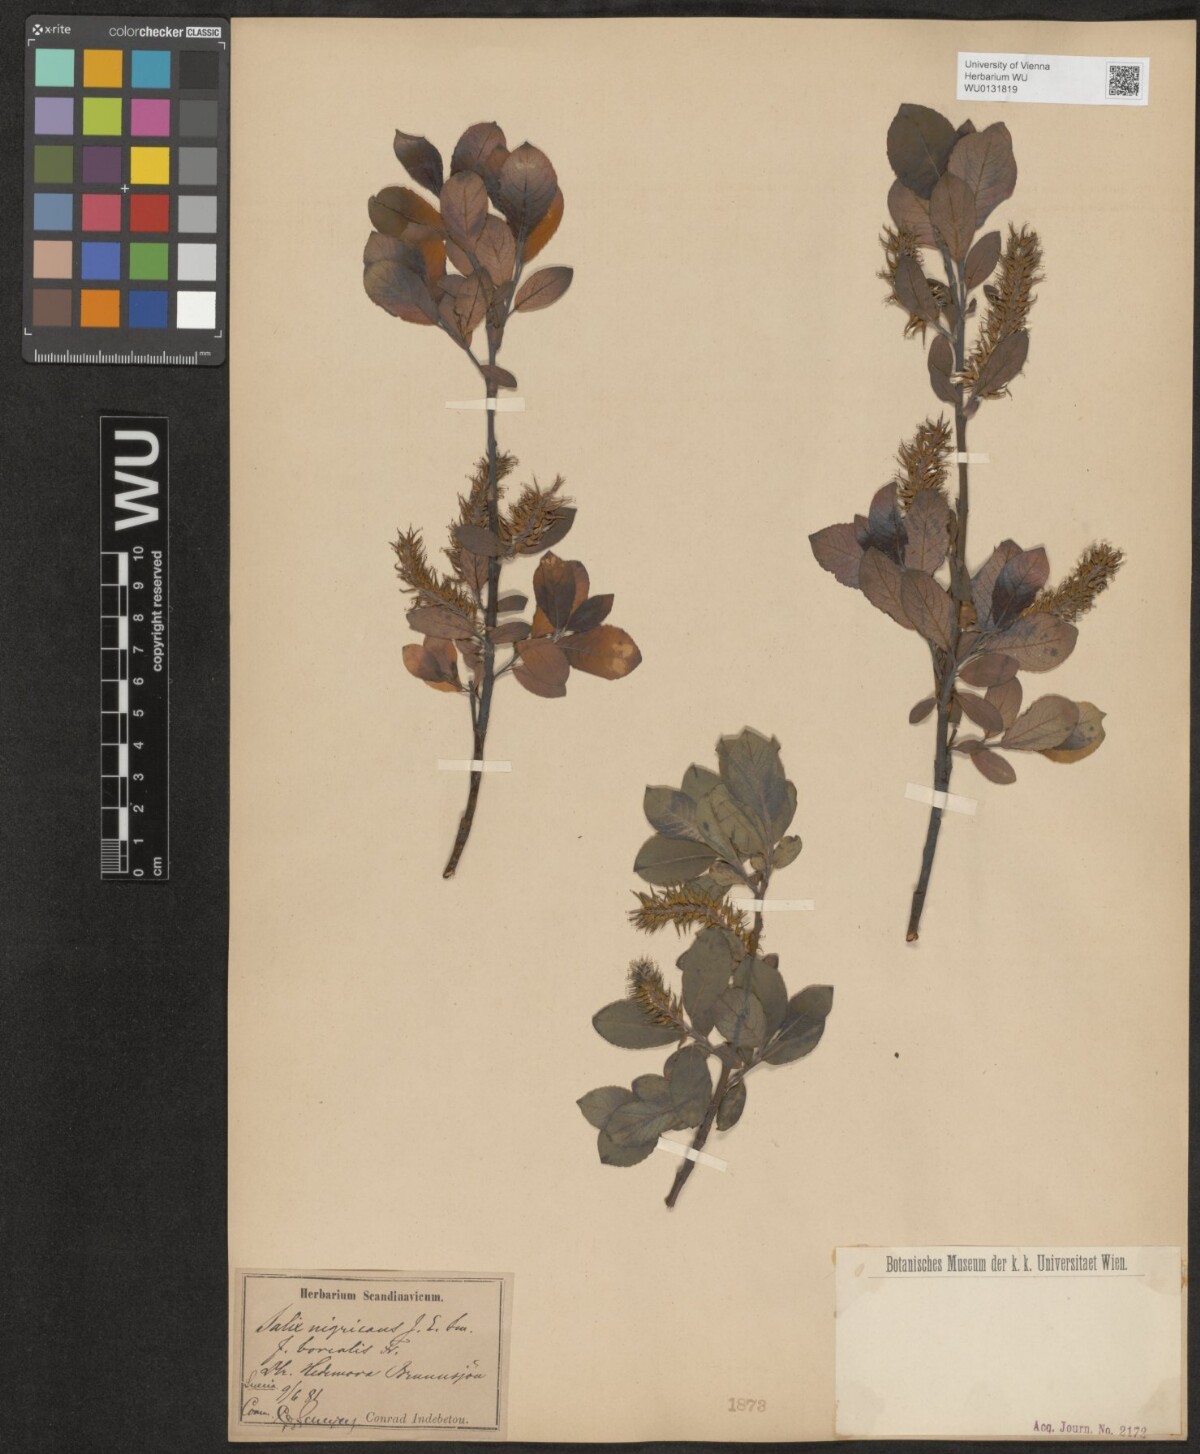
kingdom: Plantae
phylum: Tracheophyta
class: Magnoliopsida
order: Malpighiales
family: Salicaceae
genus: Salix
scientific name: Salix myrsinifolia
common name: Dark-leaved willow
